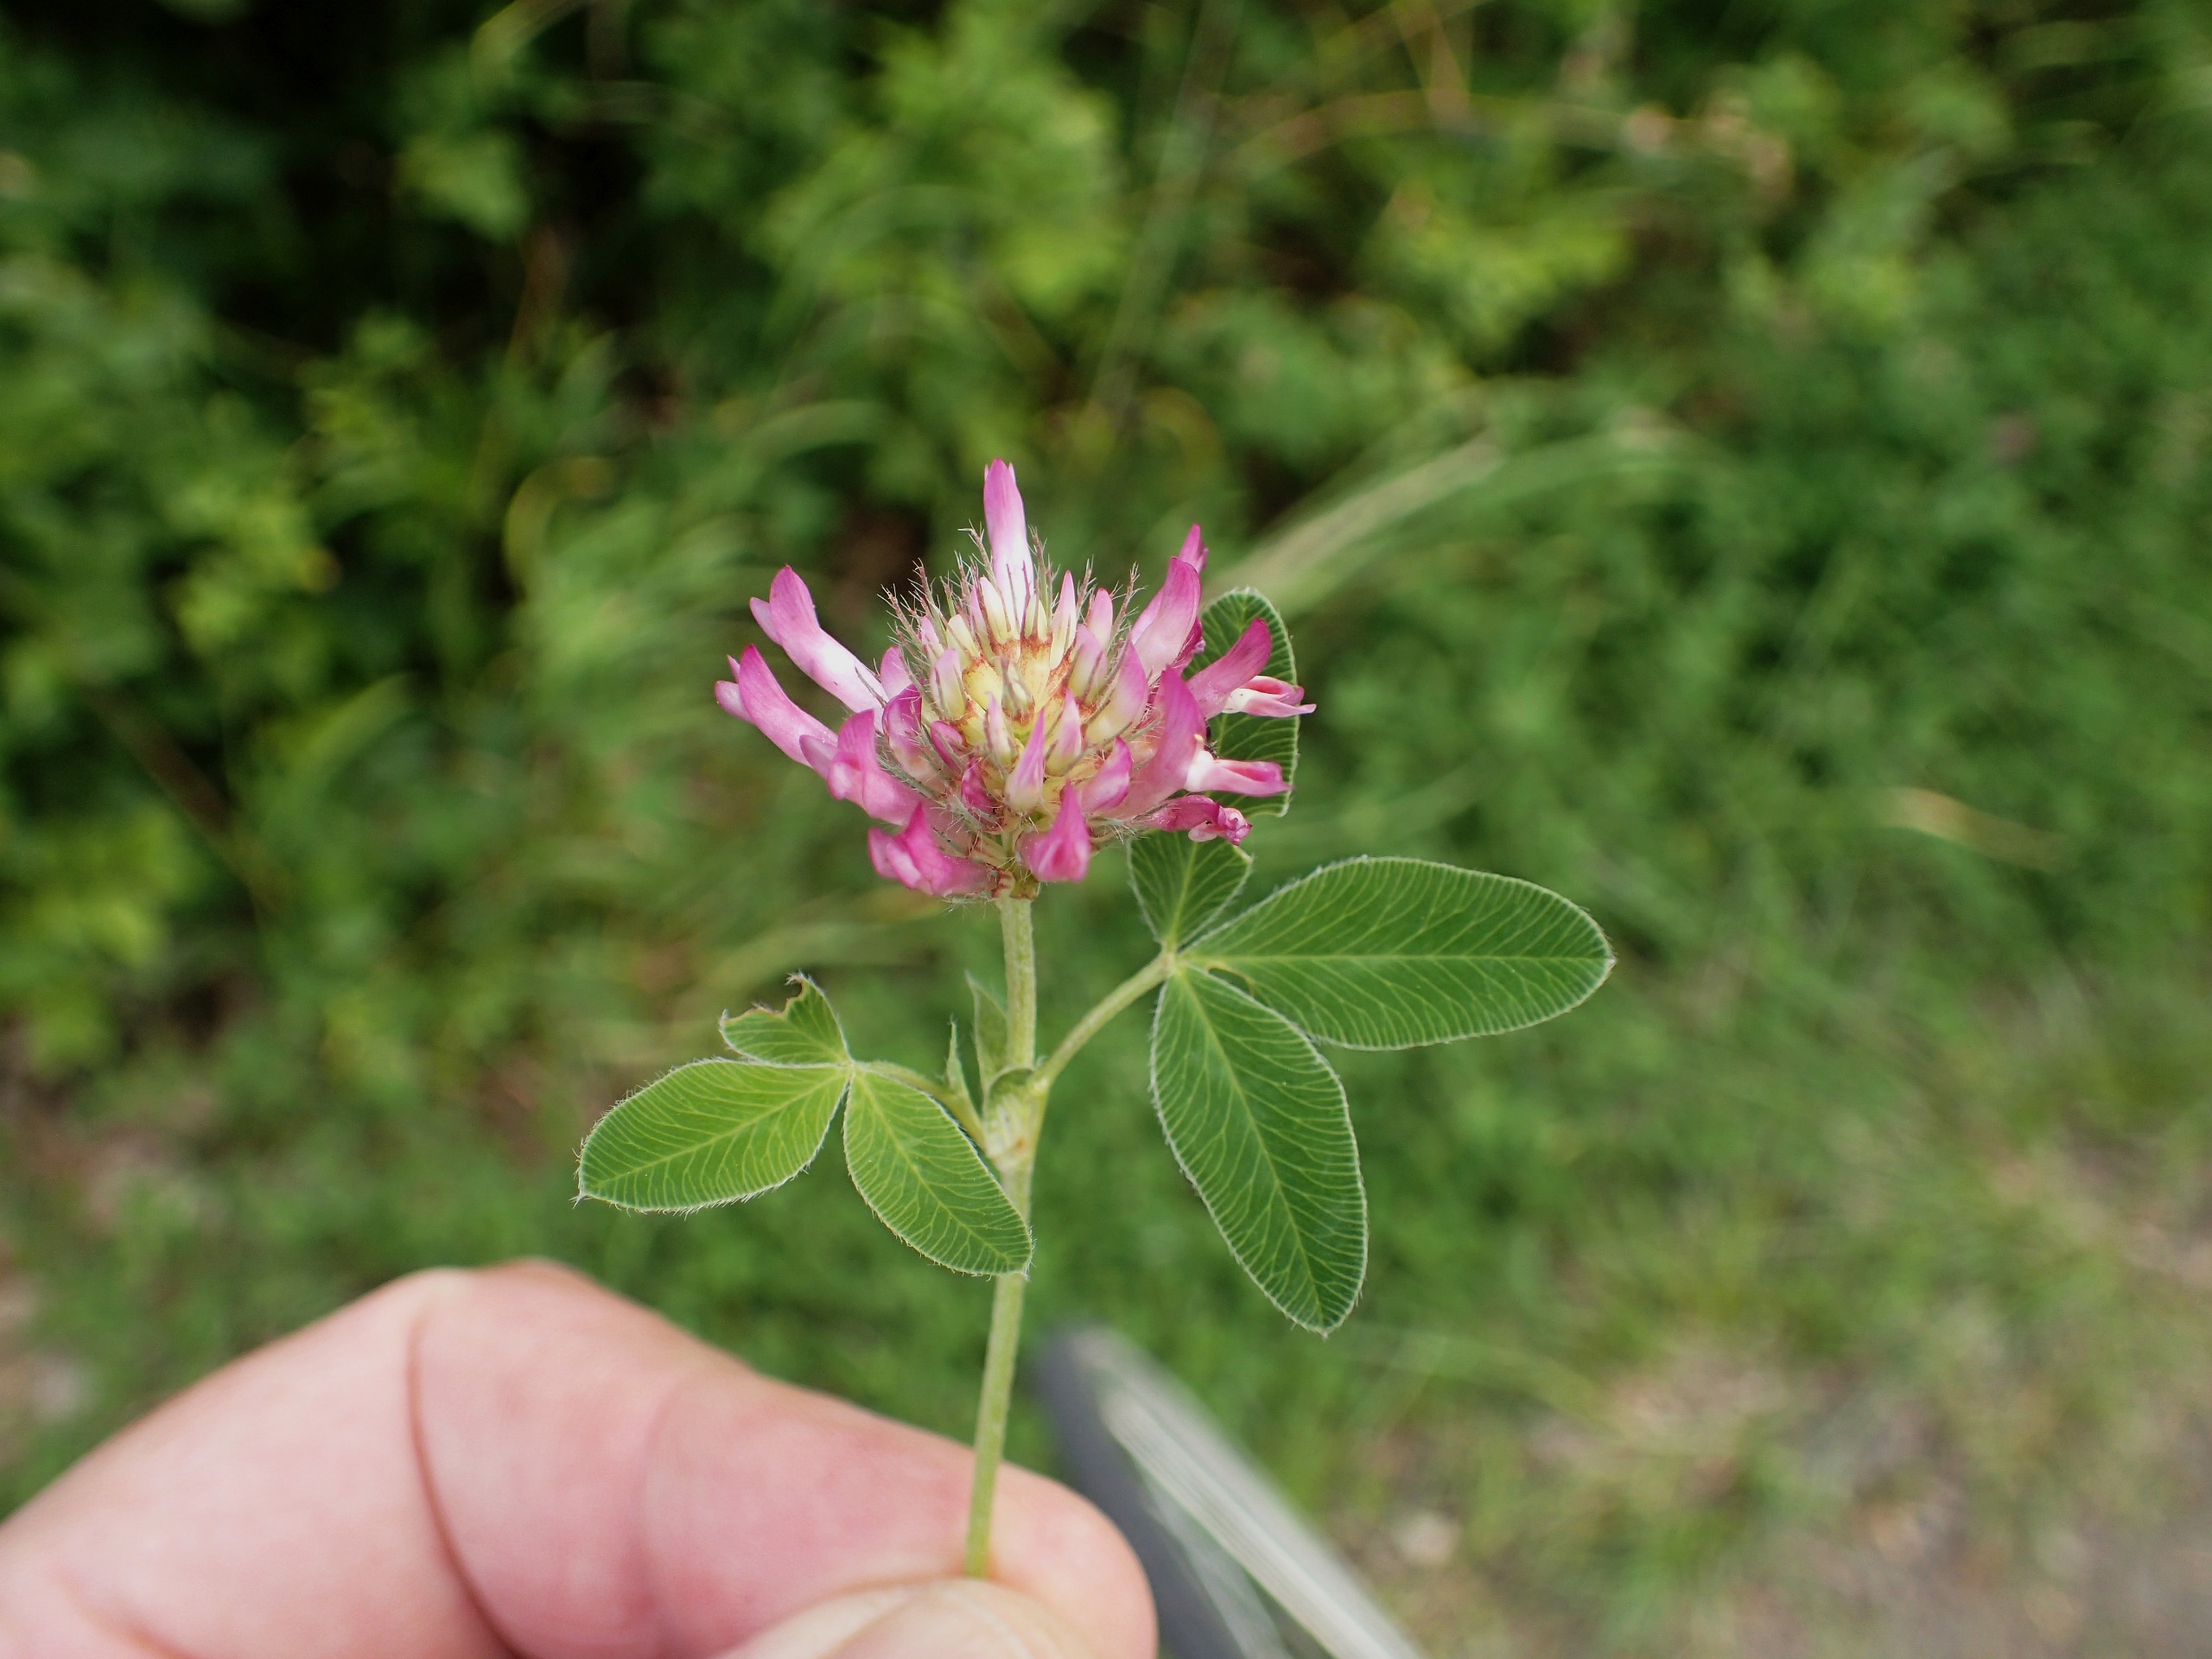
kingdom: Plantae
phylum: Tracheophyta
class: Magnoliopsida
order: Fabales
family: Fabaceae
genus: Trifolium
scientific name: Trifolium medium
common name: Bugtet kløver
